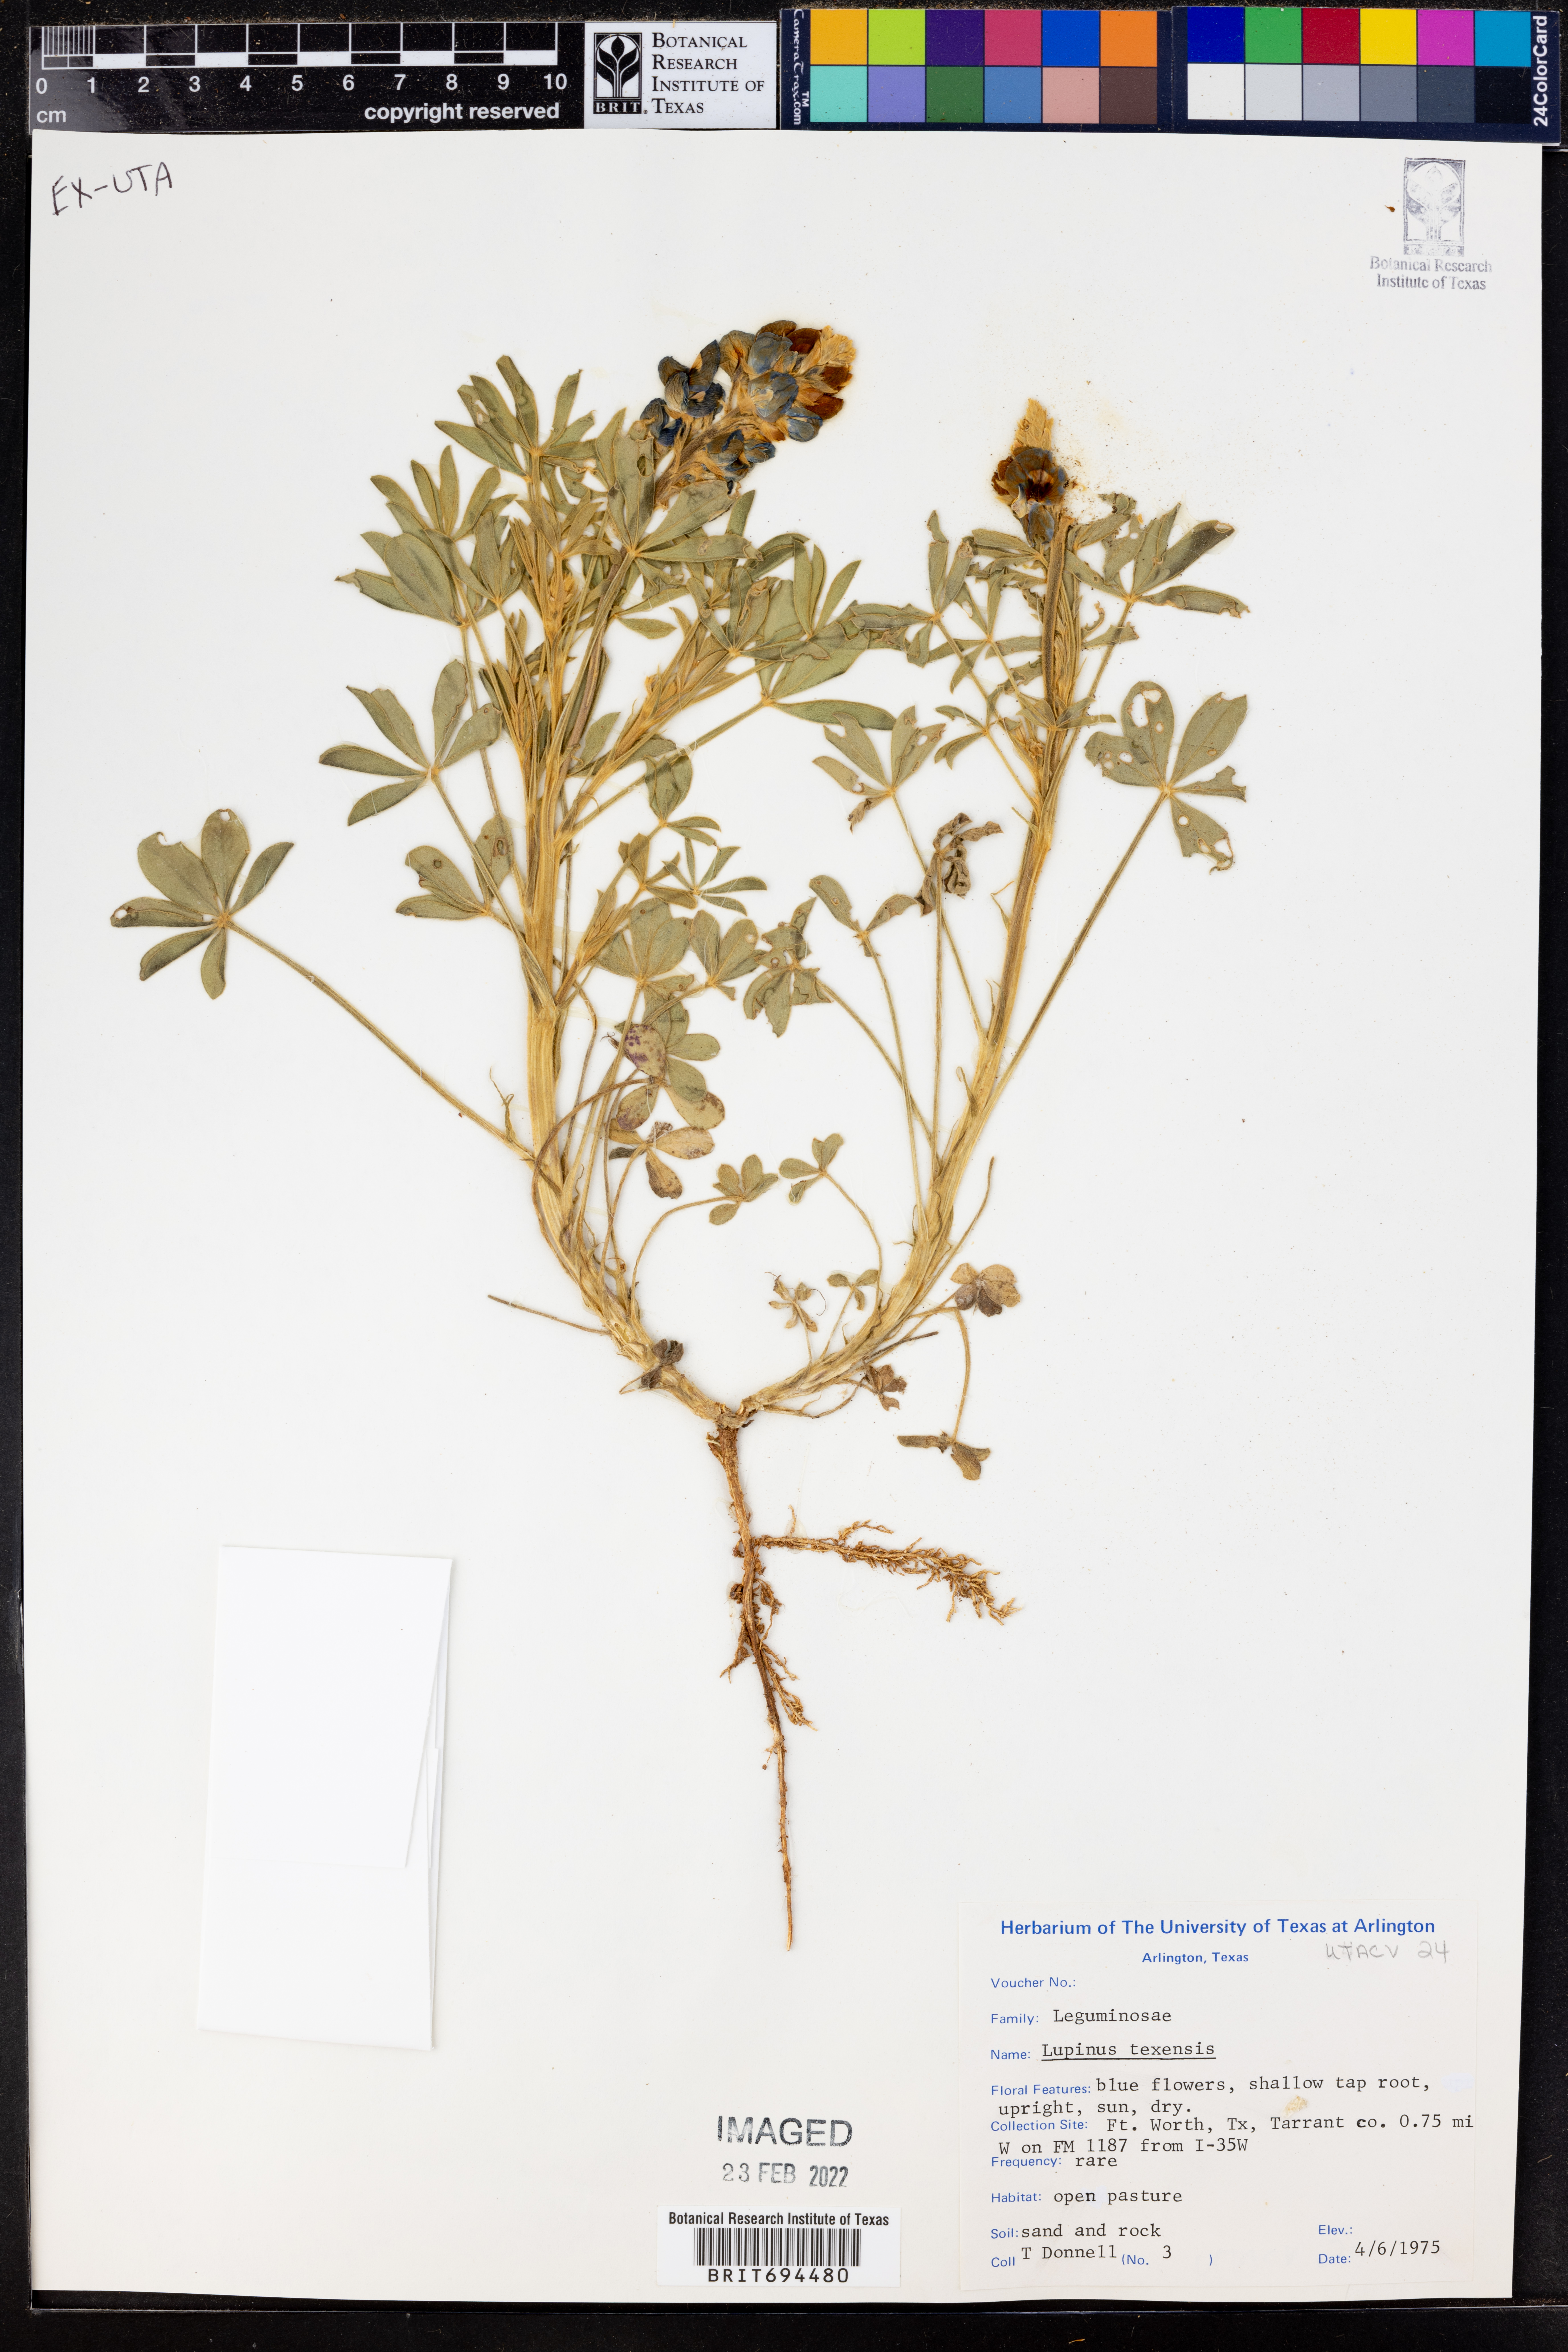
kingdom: Plantae
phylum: Tracheophyta
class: Magnoliopsida
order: Fabales
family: Fabaceae
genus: Lupinus
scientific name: Lupinus texensis
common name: Texas bluebonnet
